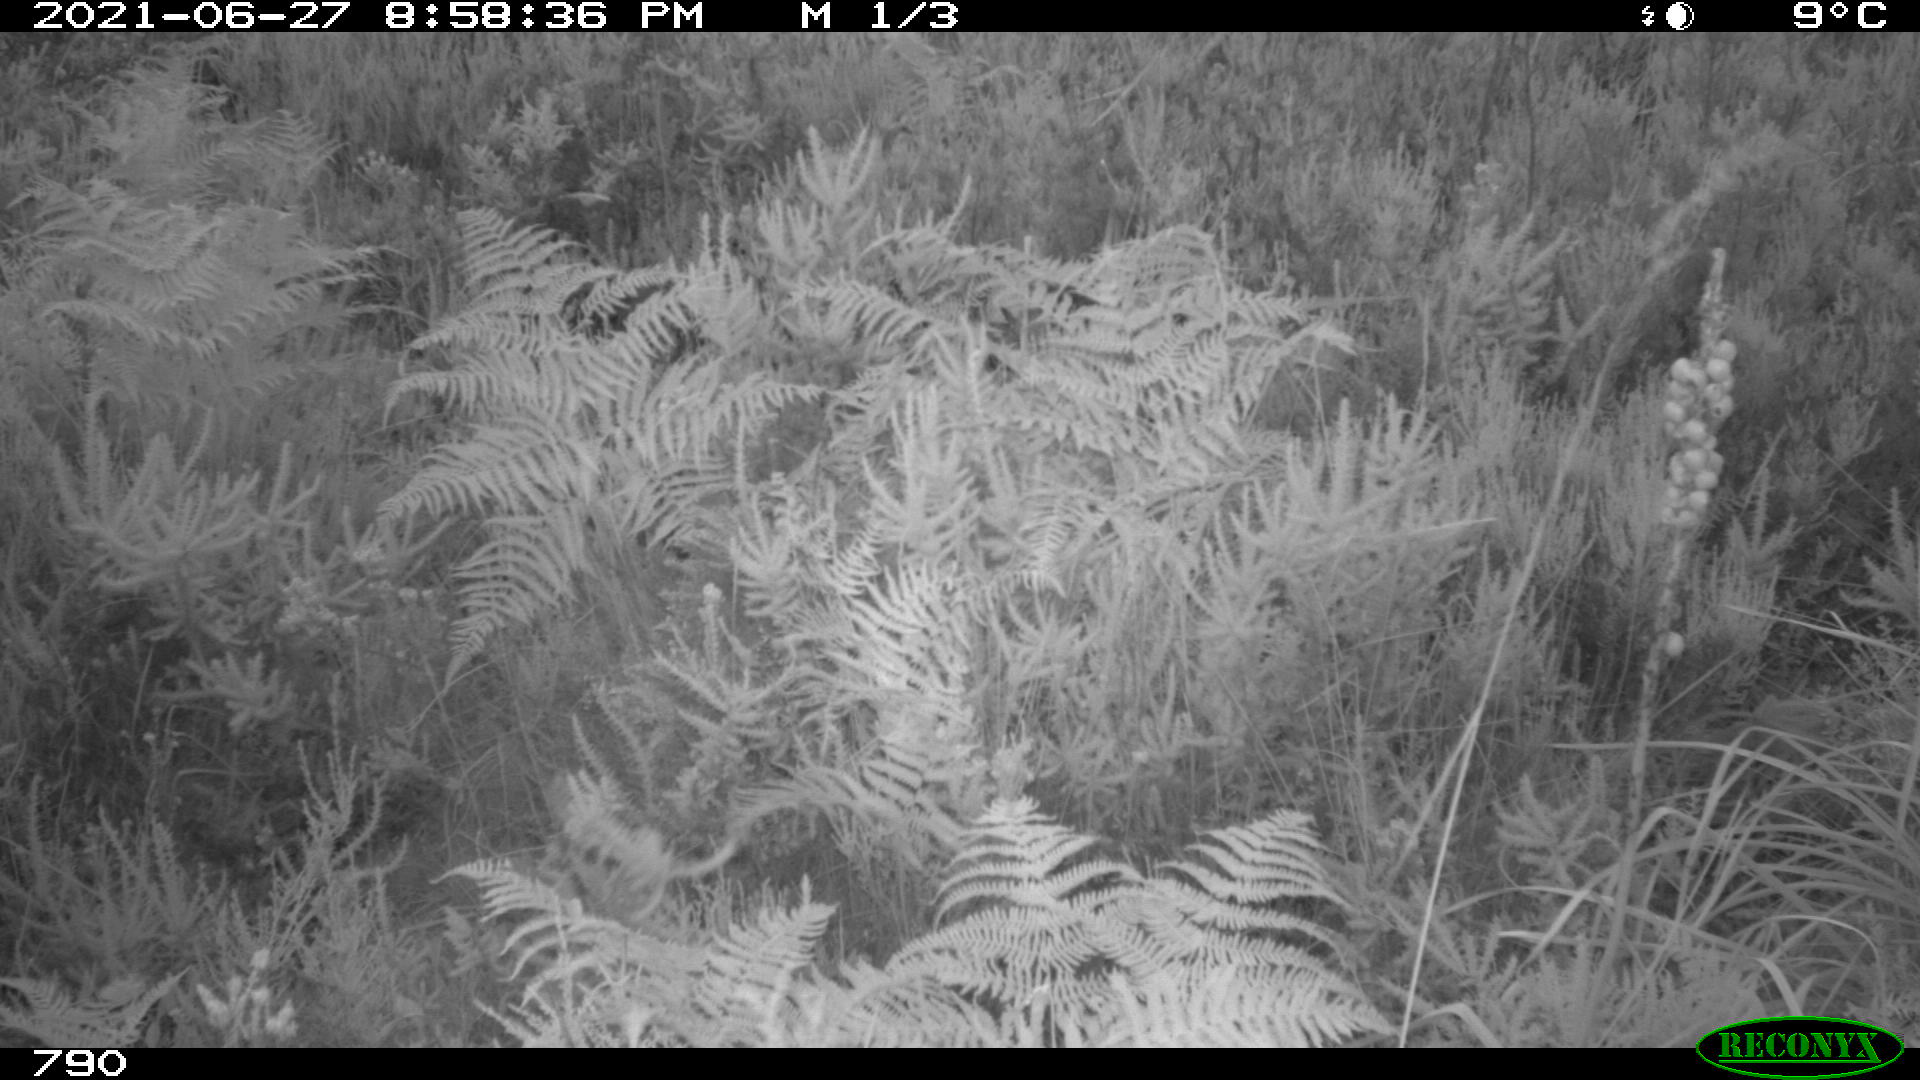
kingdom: Animalia
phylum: Chordata
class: Mammalia
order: Artiodactyla
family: Bovidae
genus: Bos
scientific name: Bos taurus
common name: Domesticated cattle
